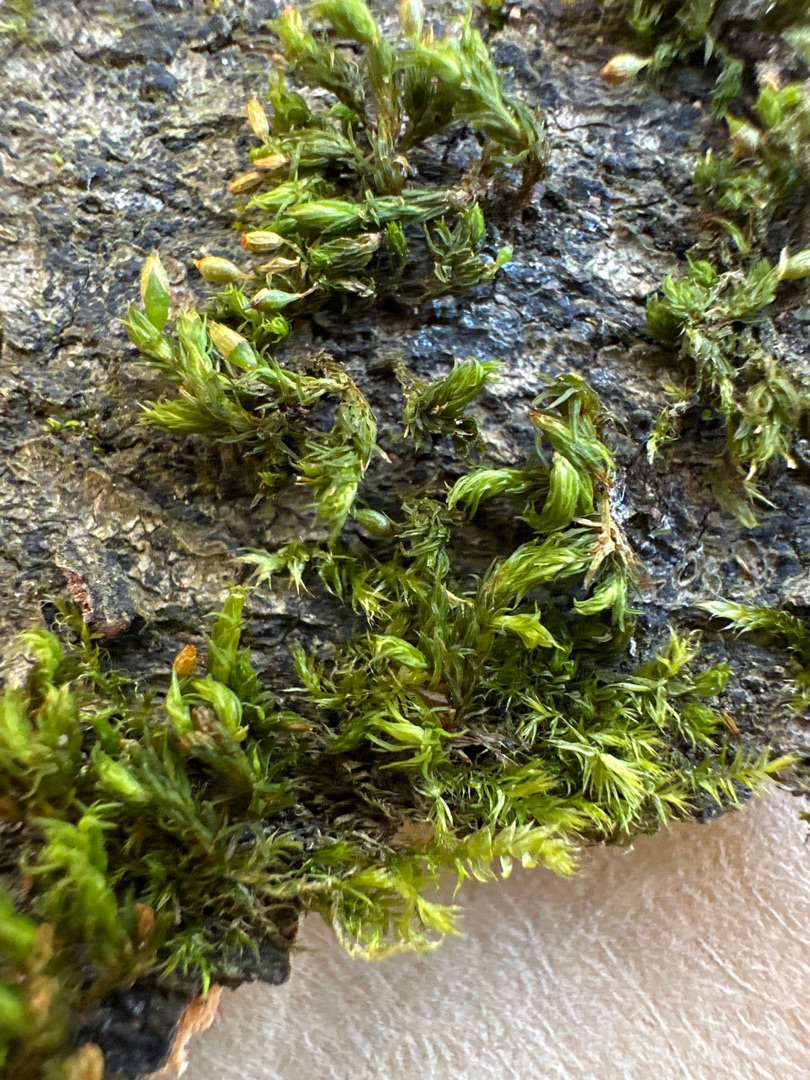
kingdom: Plantae
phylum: Bryophyta
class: Bryopsida
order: Orthotrichales
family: Orthotrichaceae
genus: Orthotrichum
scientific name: Orthotrichum pulchellum
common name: Smuk furehætte
